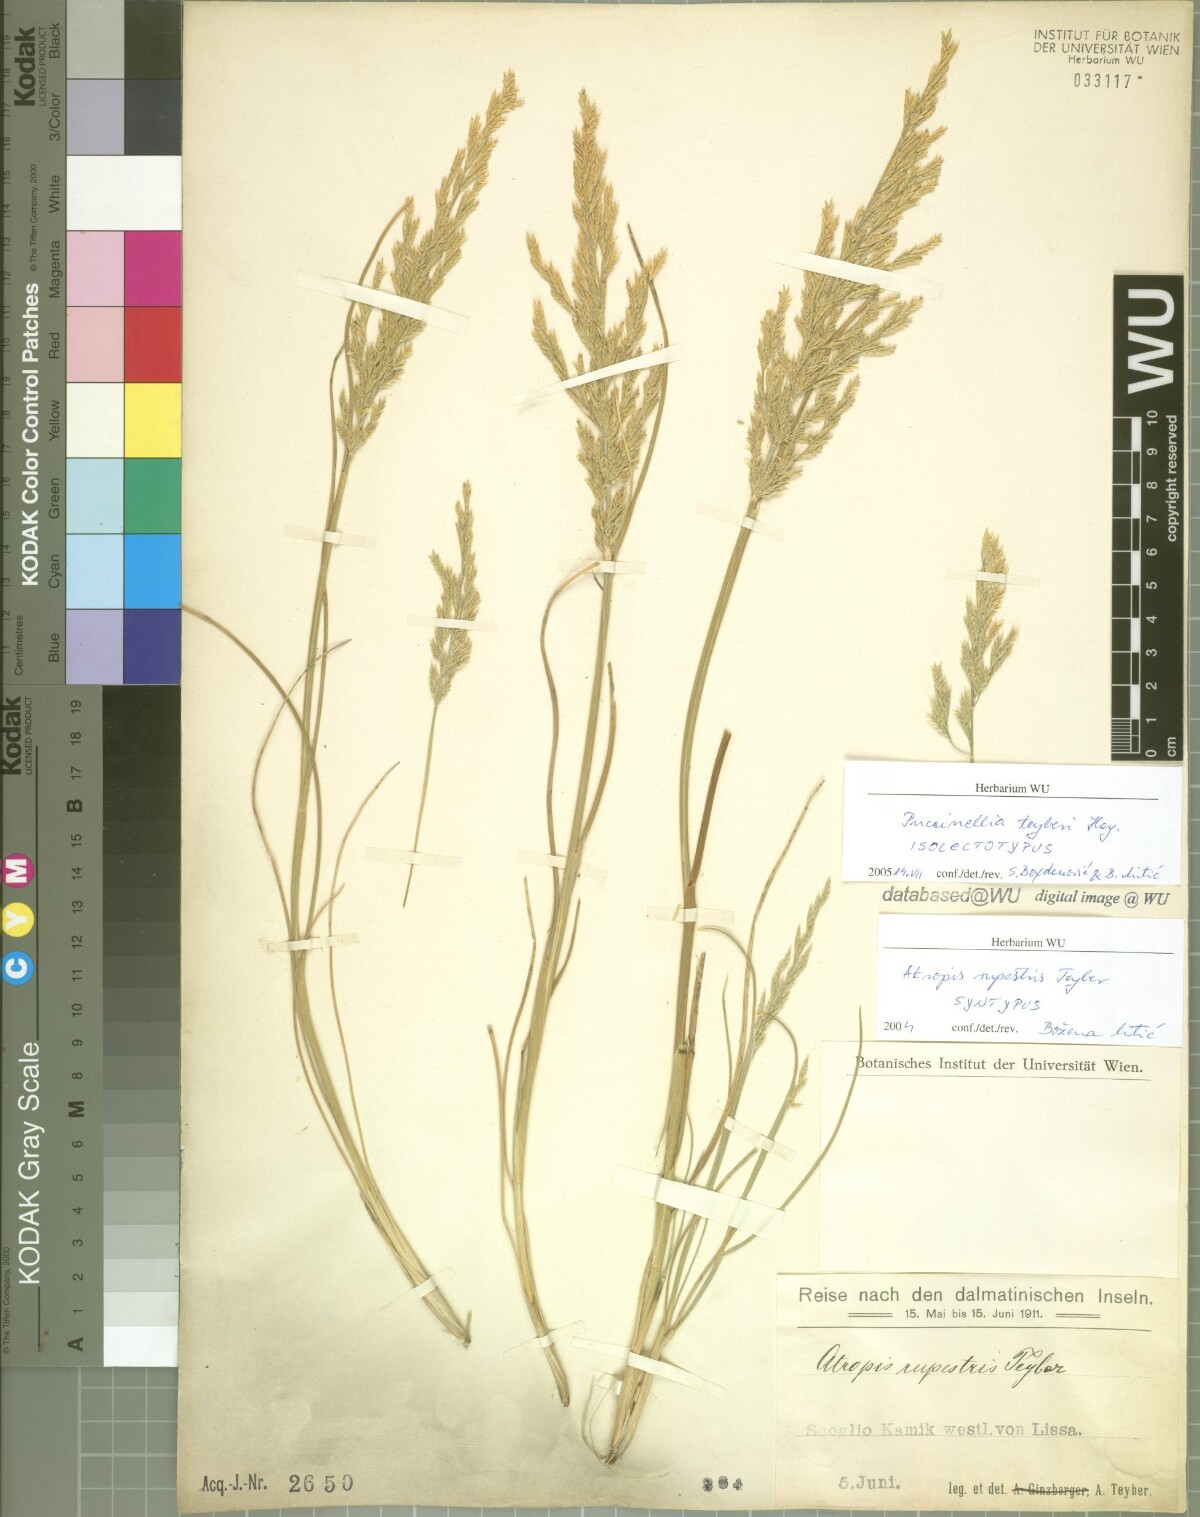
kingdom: Plantae
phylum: Tracheophyta
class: Liliopsida
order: Poales
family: Poaceae
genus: Puccinellia
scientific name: Puccinellia festuciformis
